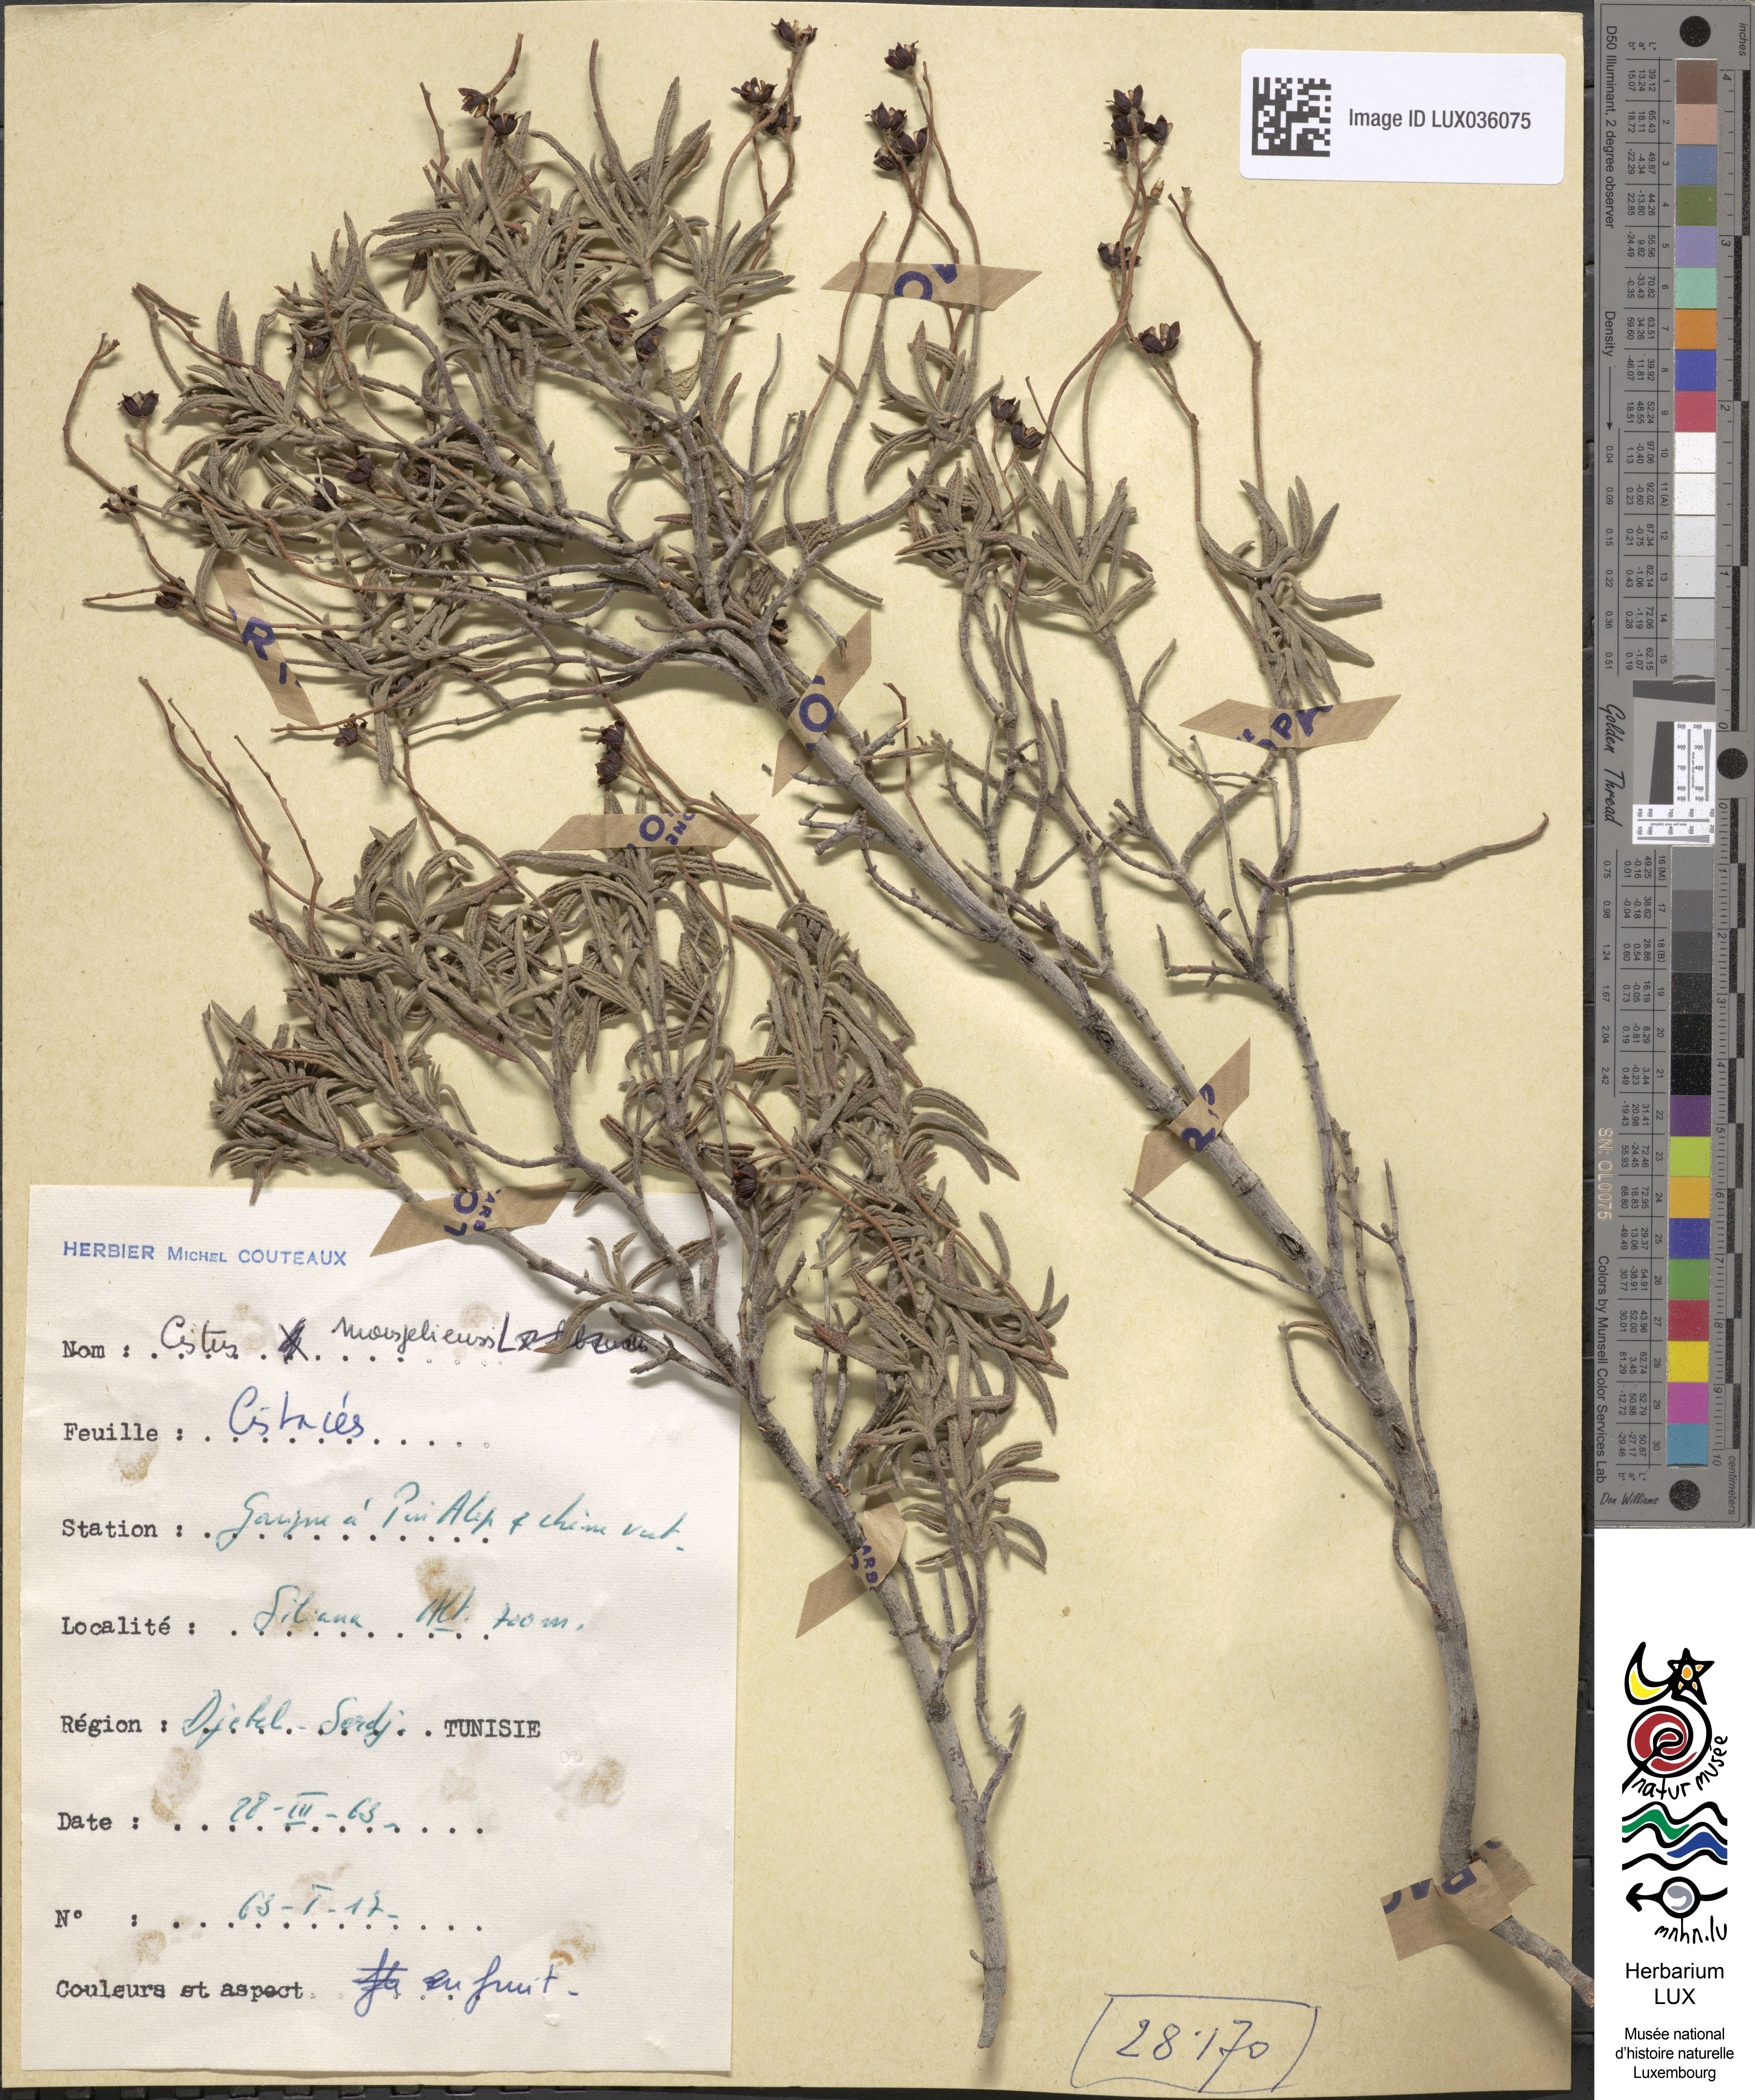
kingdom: Plantae
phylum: Tracheophyta
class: Magnoliopsida
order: Malvales
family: Cistaceae
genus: Cistus
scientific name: Cistus monspeliensis
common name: Montpelier cistus
